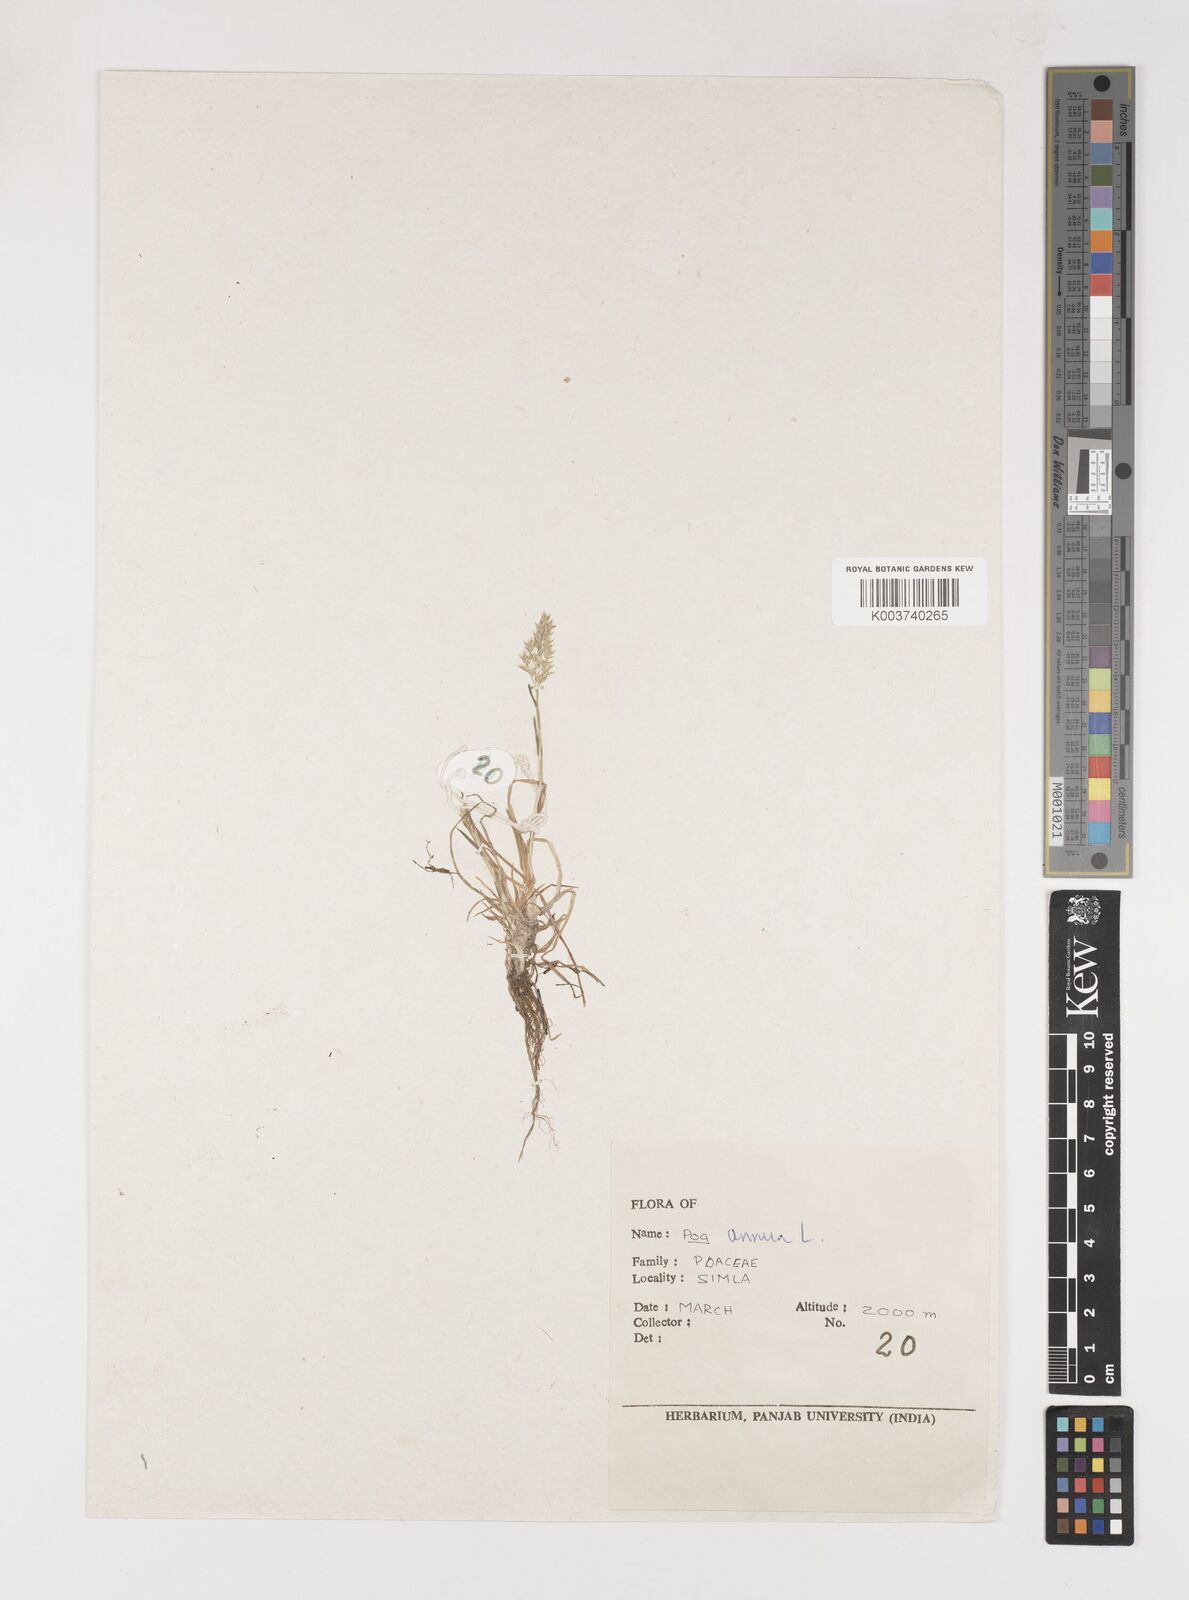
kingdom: Plantae
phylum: Tracheophyta
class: Liliopsida
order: Poales
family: Poaceae
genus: Poa
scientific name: Poa annua
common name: Annual bluegrass
